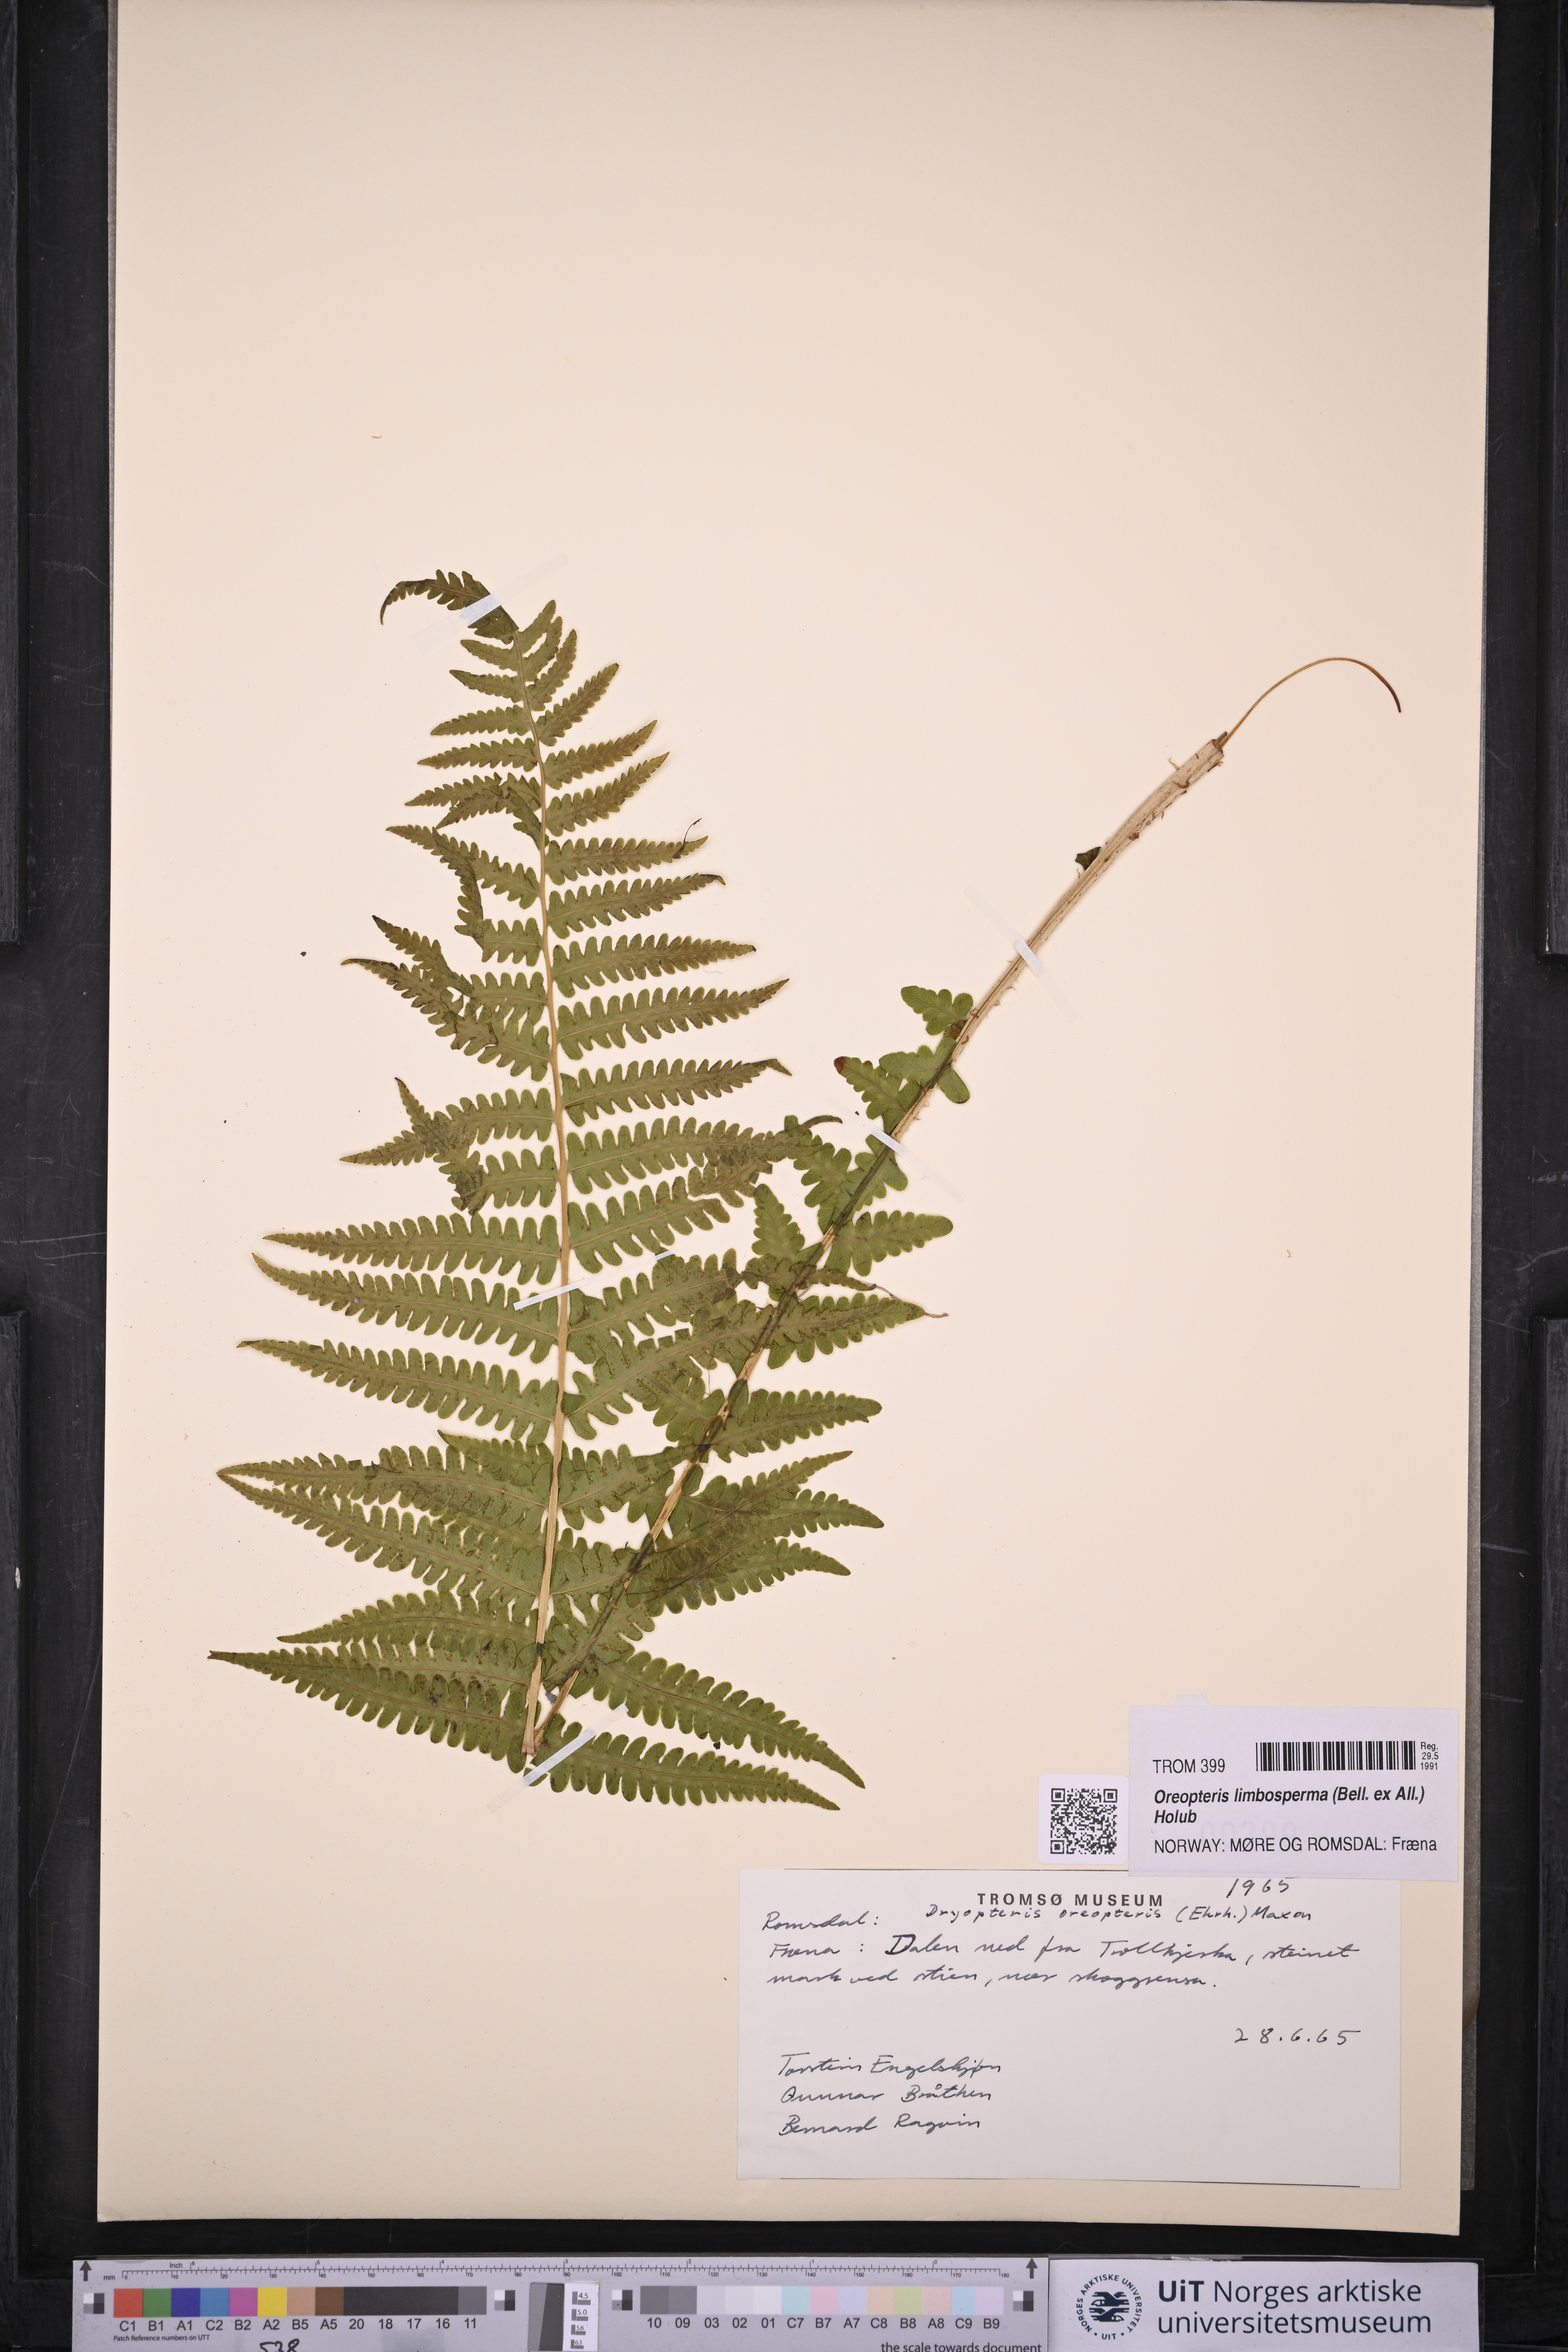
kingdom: Plantae
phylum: Tracheophyta
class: Polypodiopsida
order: Polypodiales
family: Thelypteridaceae
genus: Oreopteris
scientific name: Oreopteris limbosperma
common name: Lemon-scented fern
